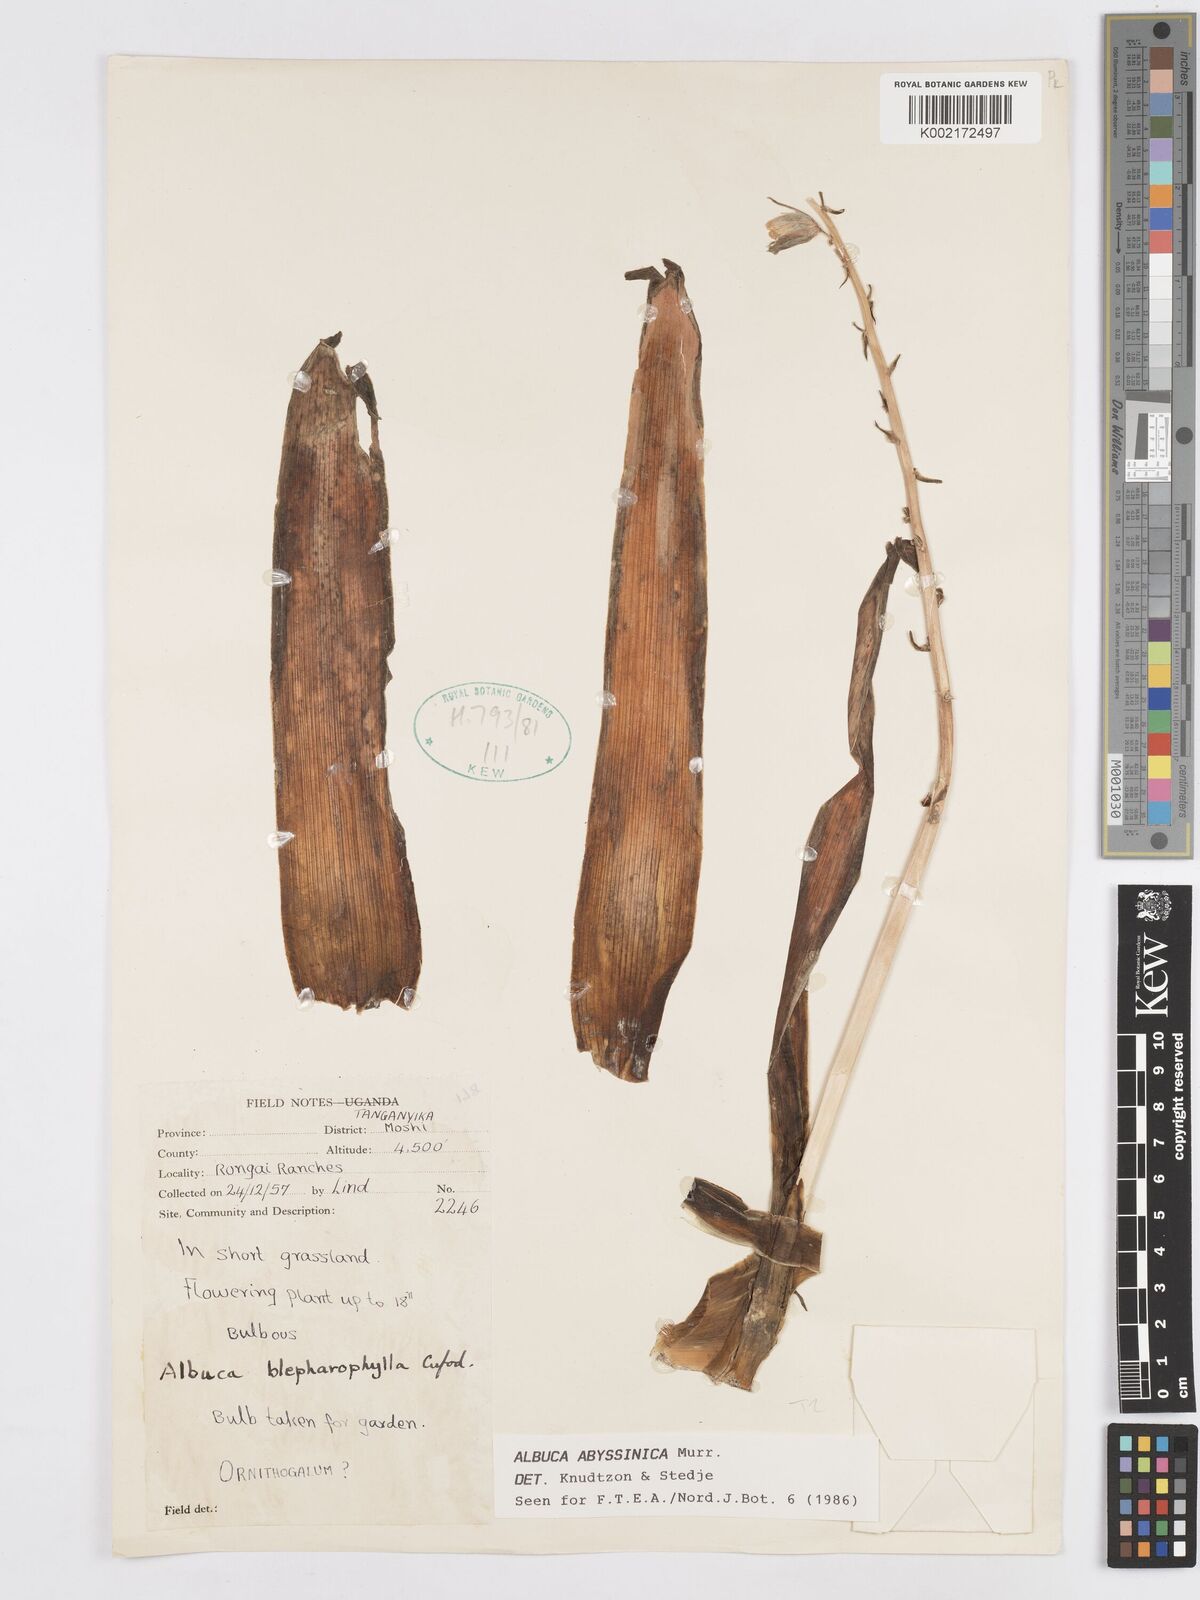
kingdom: Plantae
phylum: Tracheophyta
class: Liliopsida
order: Asparagales
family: Asparagaceae
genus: Albuca
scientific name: Albuca abyssinica
